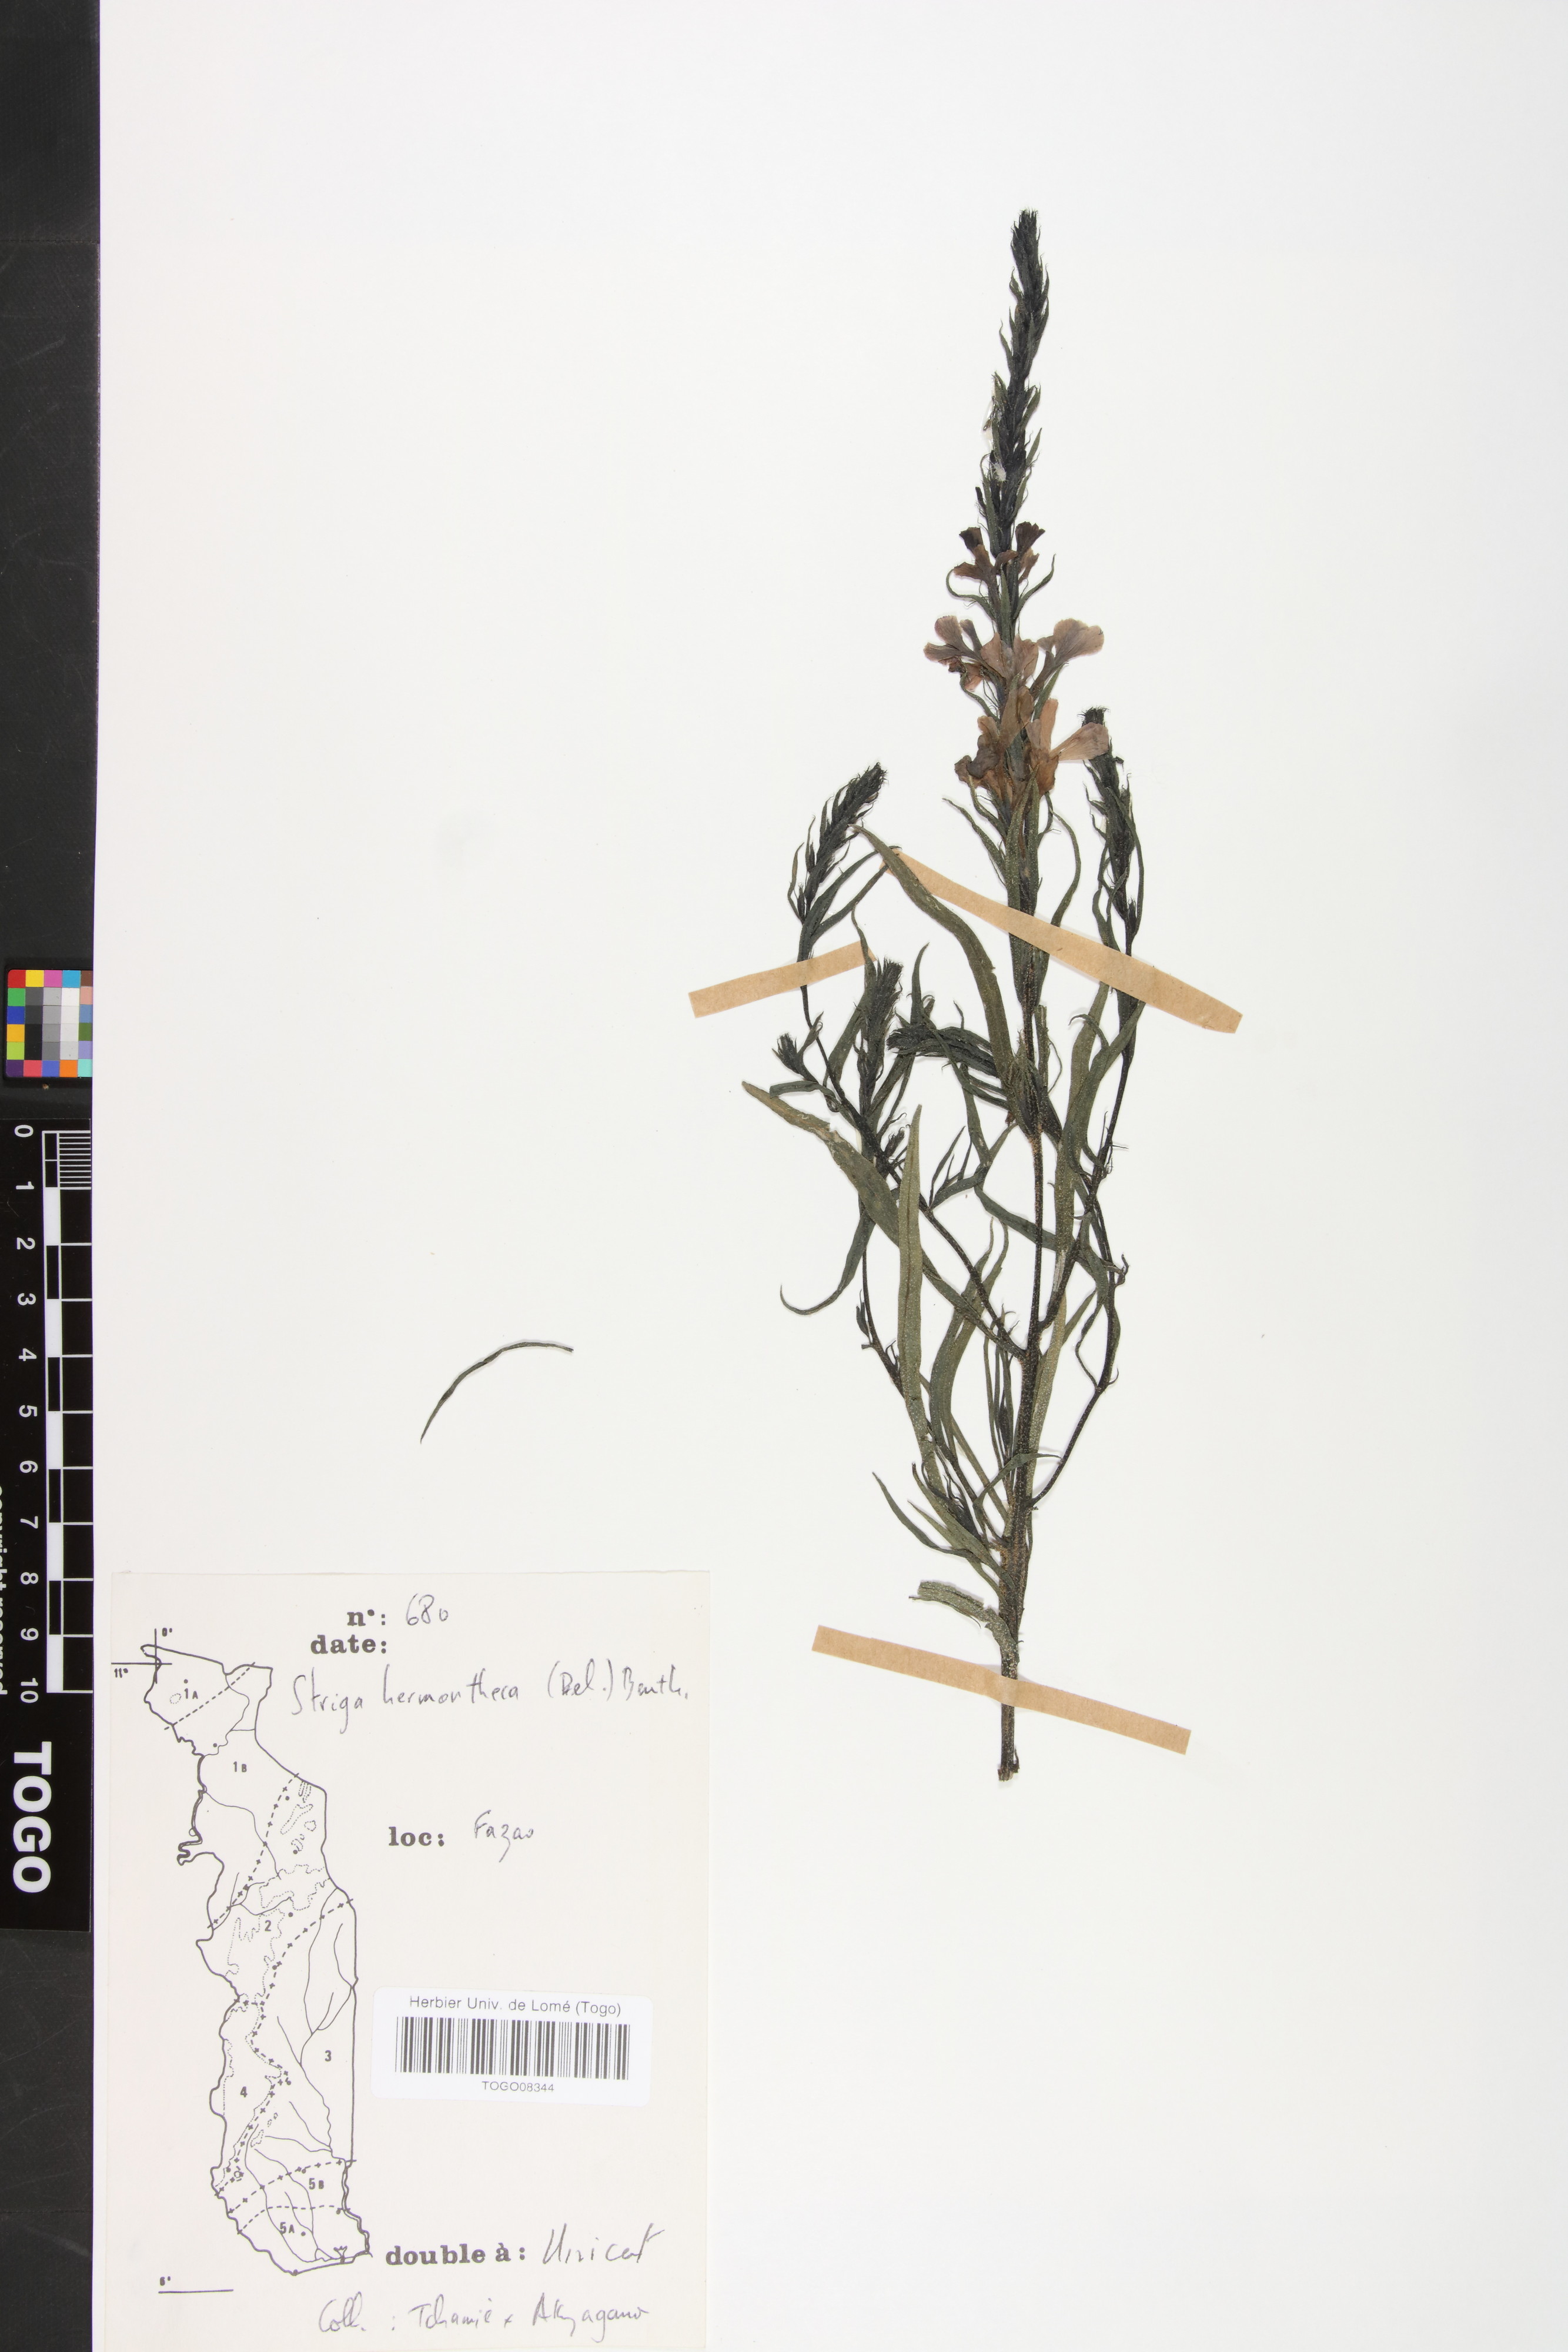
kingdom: Plantae
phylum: Tracheophyta
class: Magnoliopsida
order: Lamiales
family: Orobanchaceae
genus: Striga
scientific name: Striga hermonthica
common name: Purple witchweed
